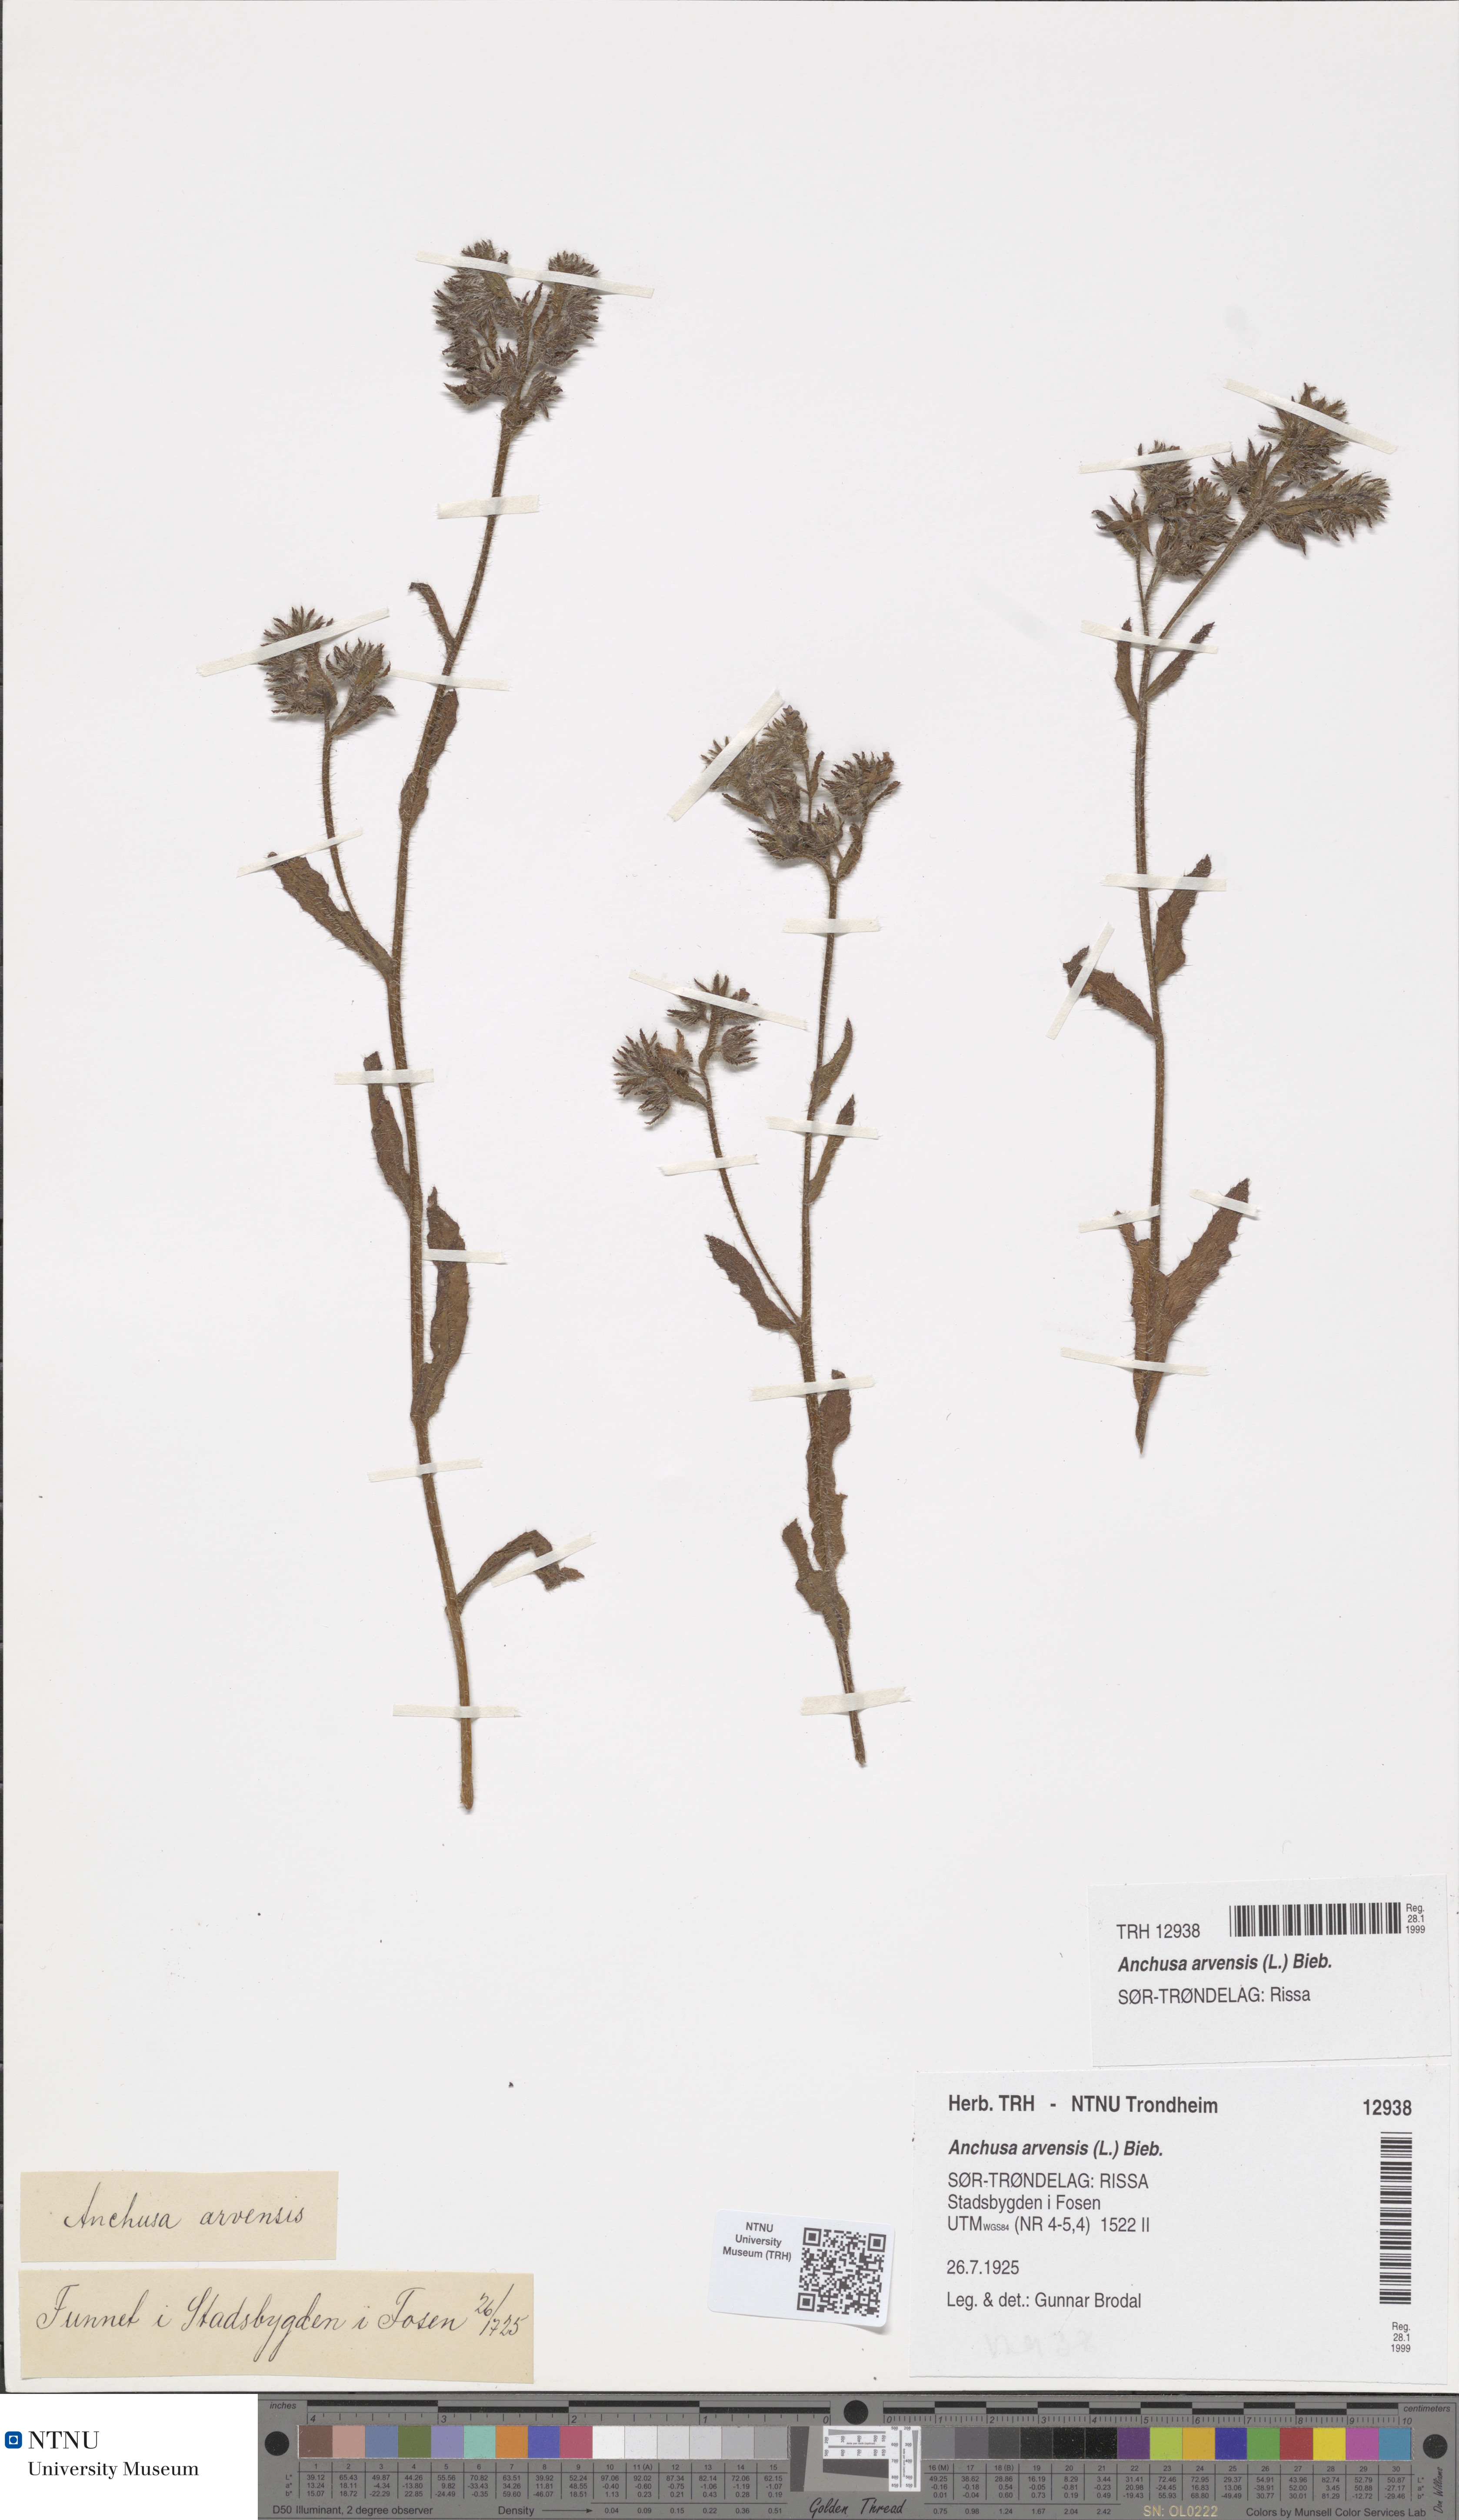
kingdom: Plantae
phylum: Tracheophyta
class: Magnoliopsida
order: Boraginales
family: Boraginaceae
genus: Lycopsis
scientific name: Lycopsis arvensis
